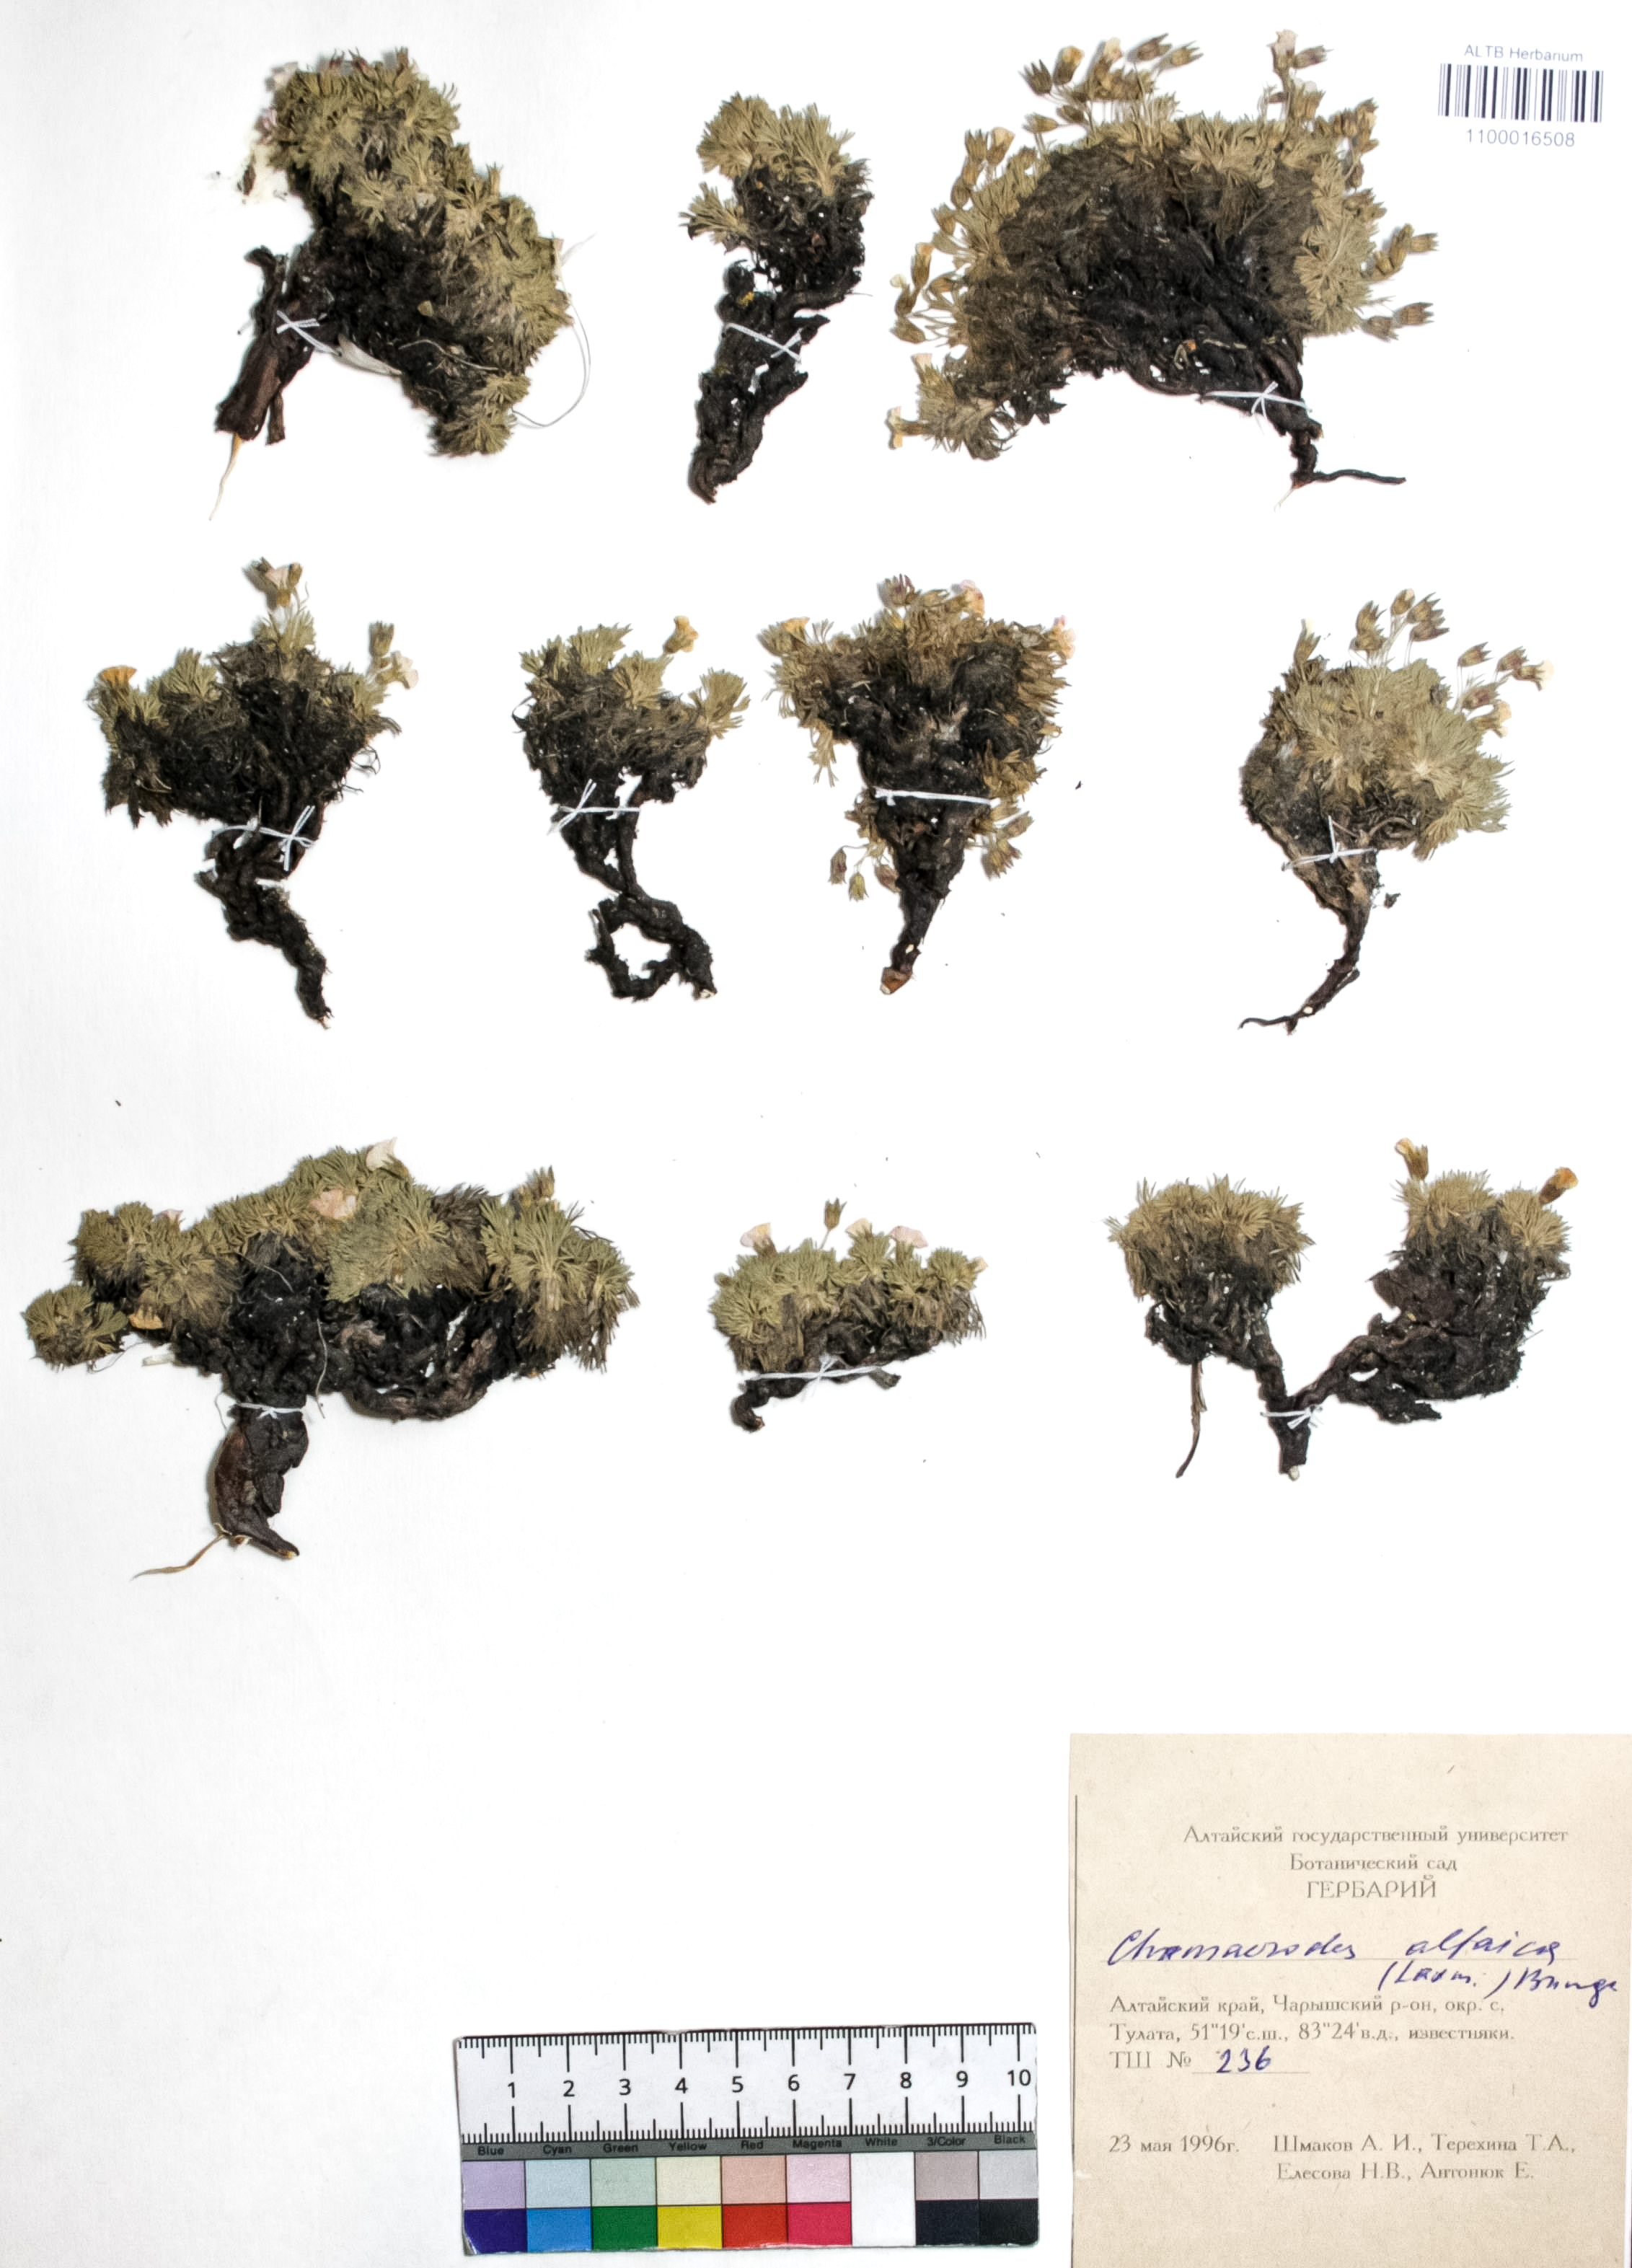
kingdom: Plantae
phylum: Tracheophyta
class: Magnoliopsida
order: Rosales
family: Rosaceae
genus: Chamaerhodos
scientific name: Chamaerhodos altaica
